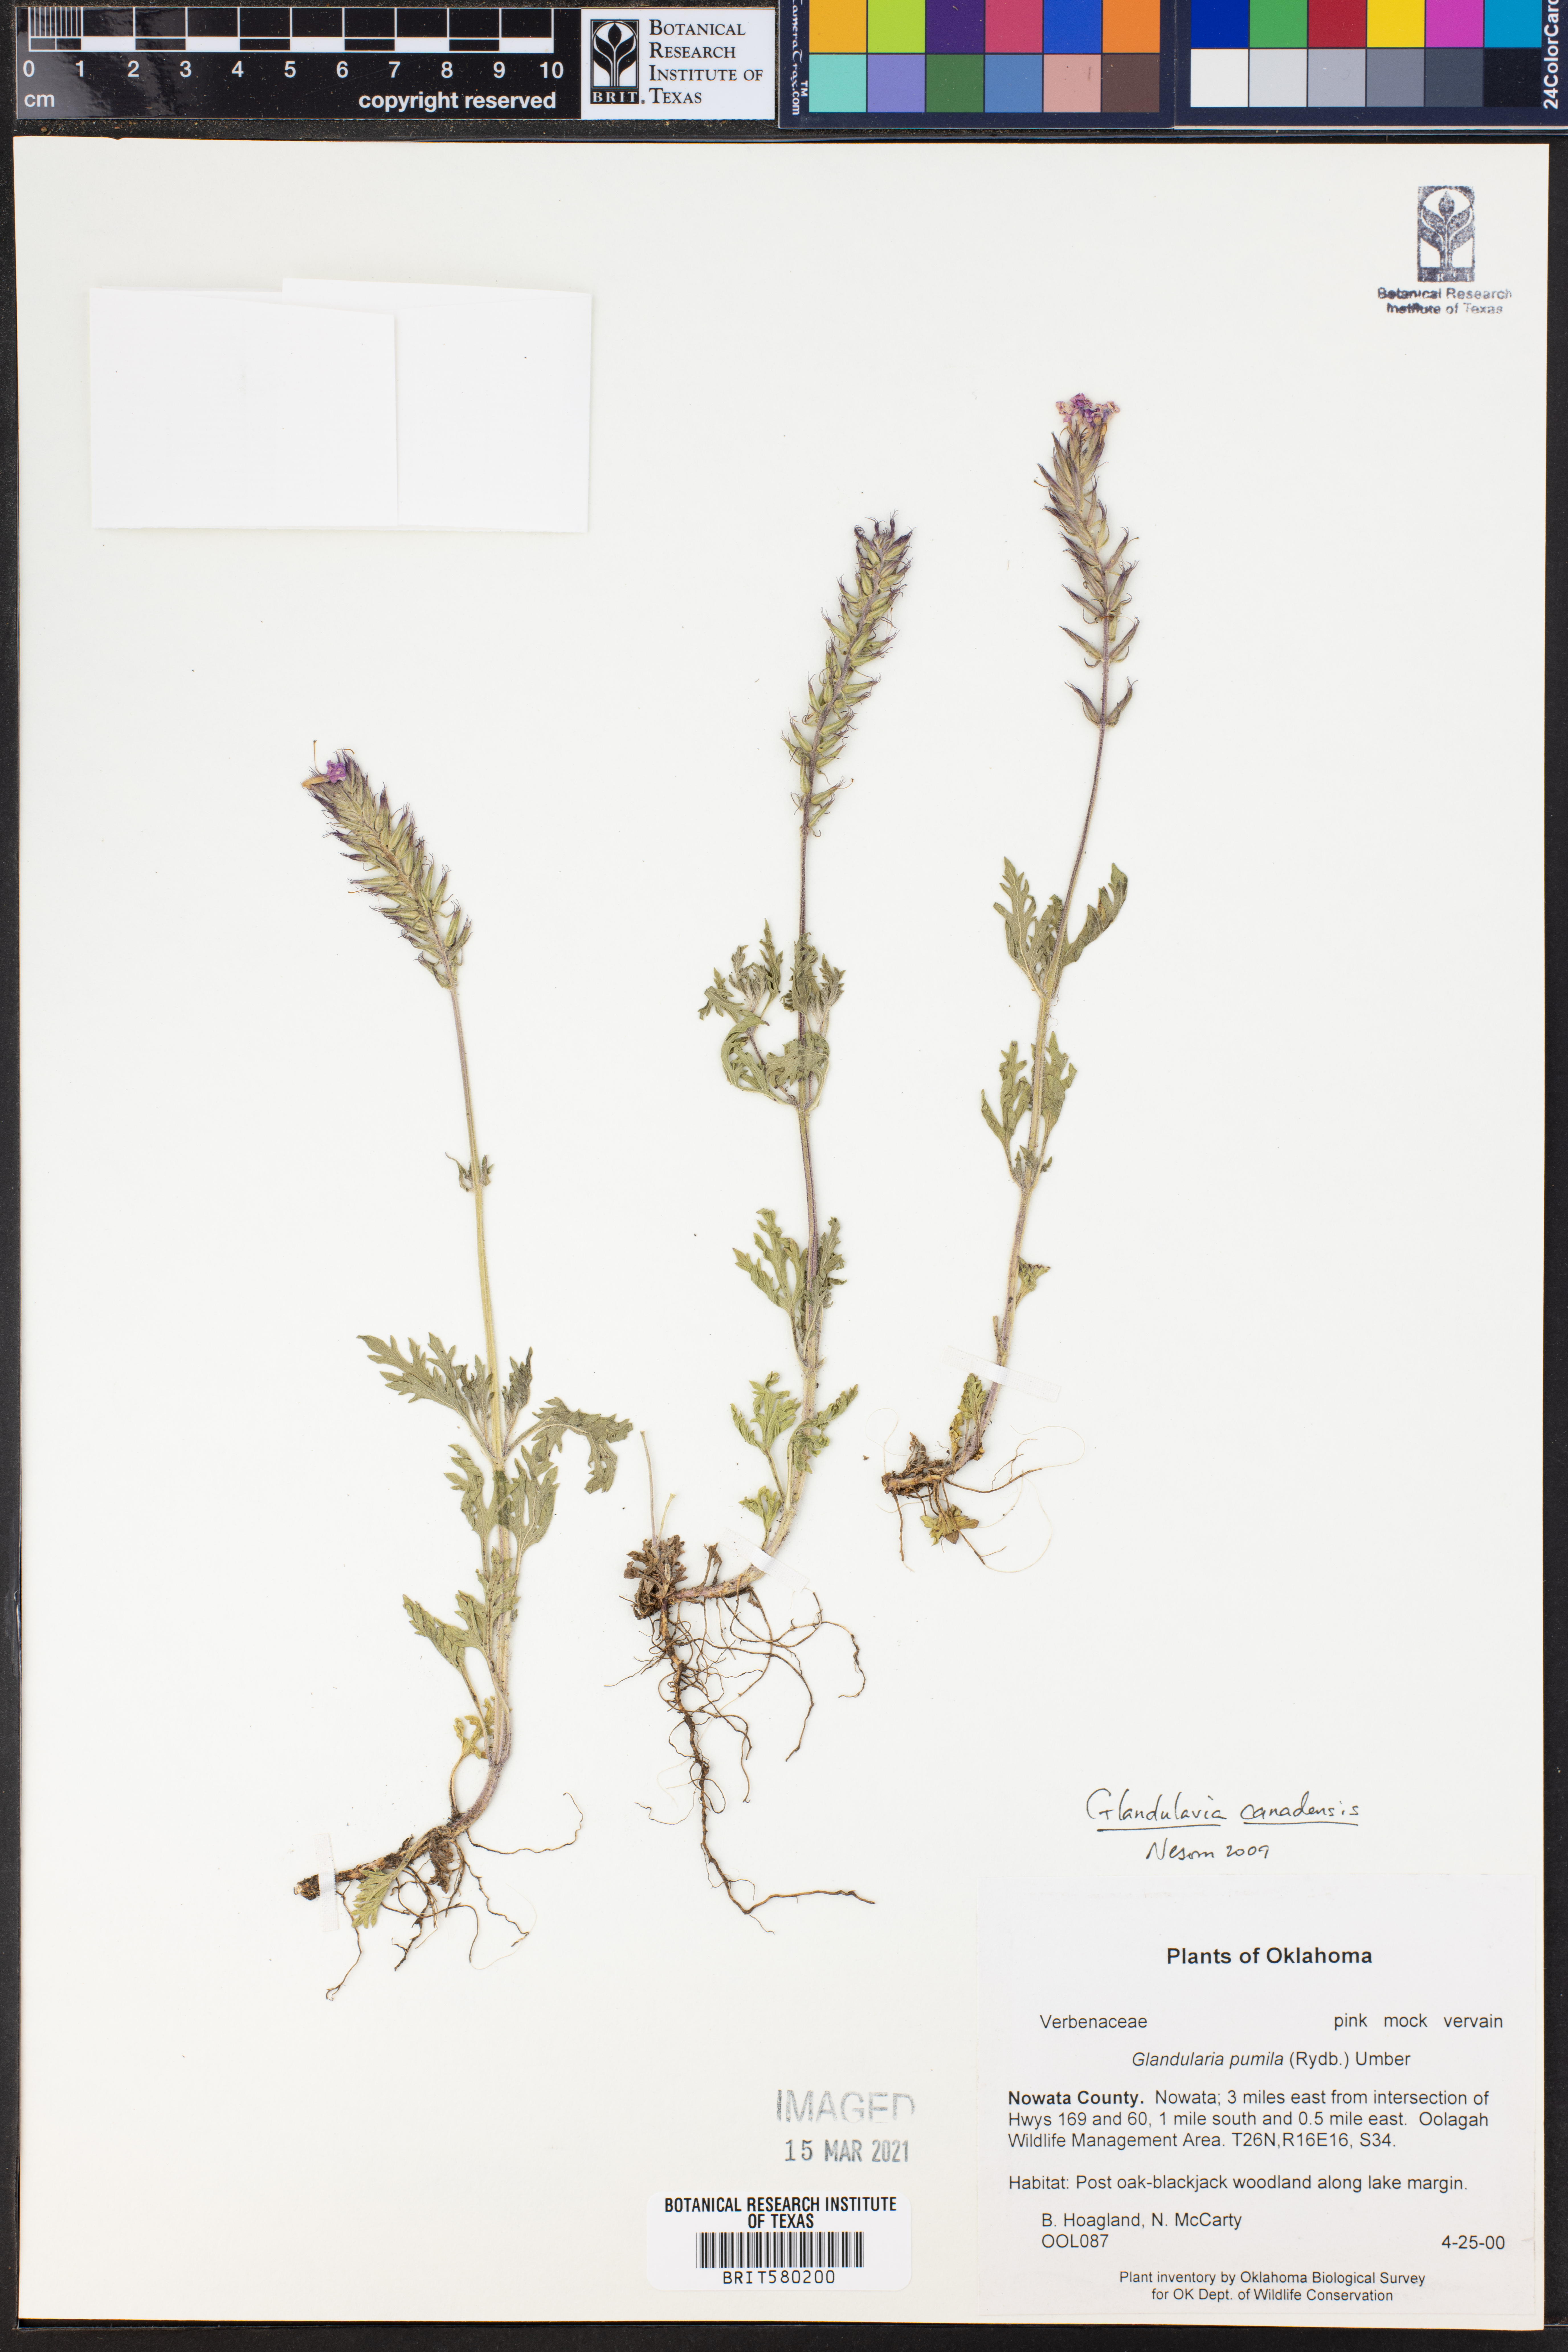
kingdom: Plantae
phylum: Tracheophyta
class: Magnoliopsida
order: Lamiales
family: Verbenaceae
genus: Verbena
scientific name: Verbena canadensis
